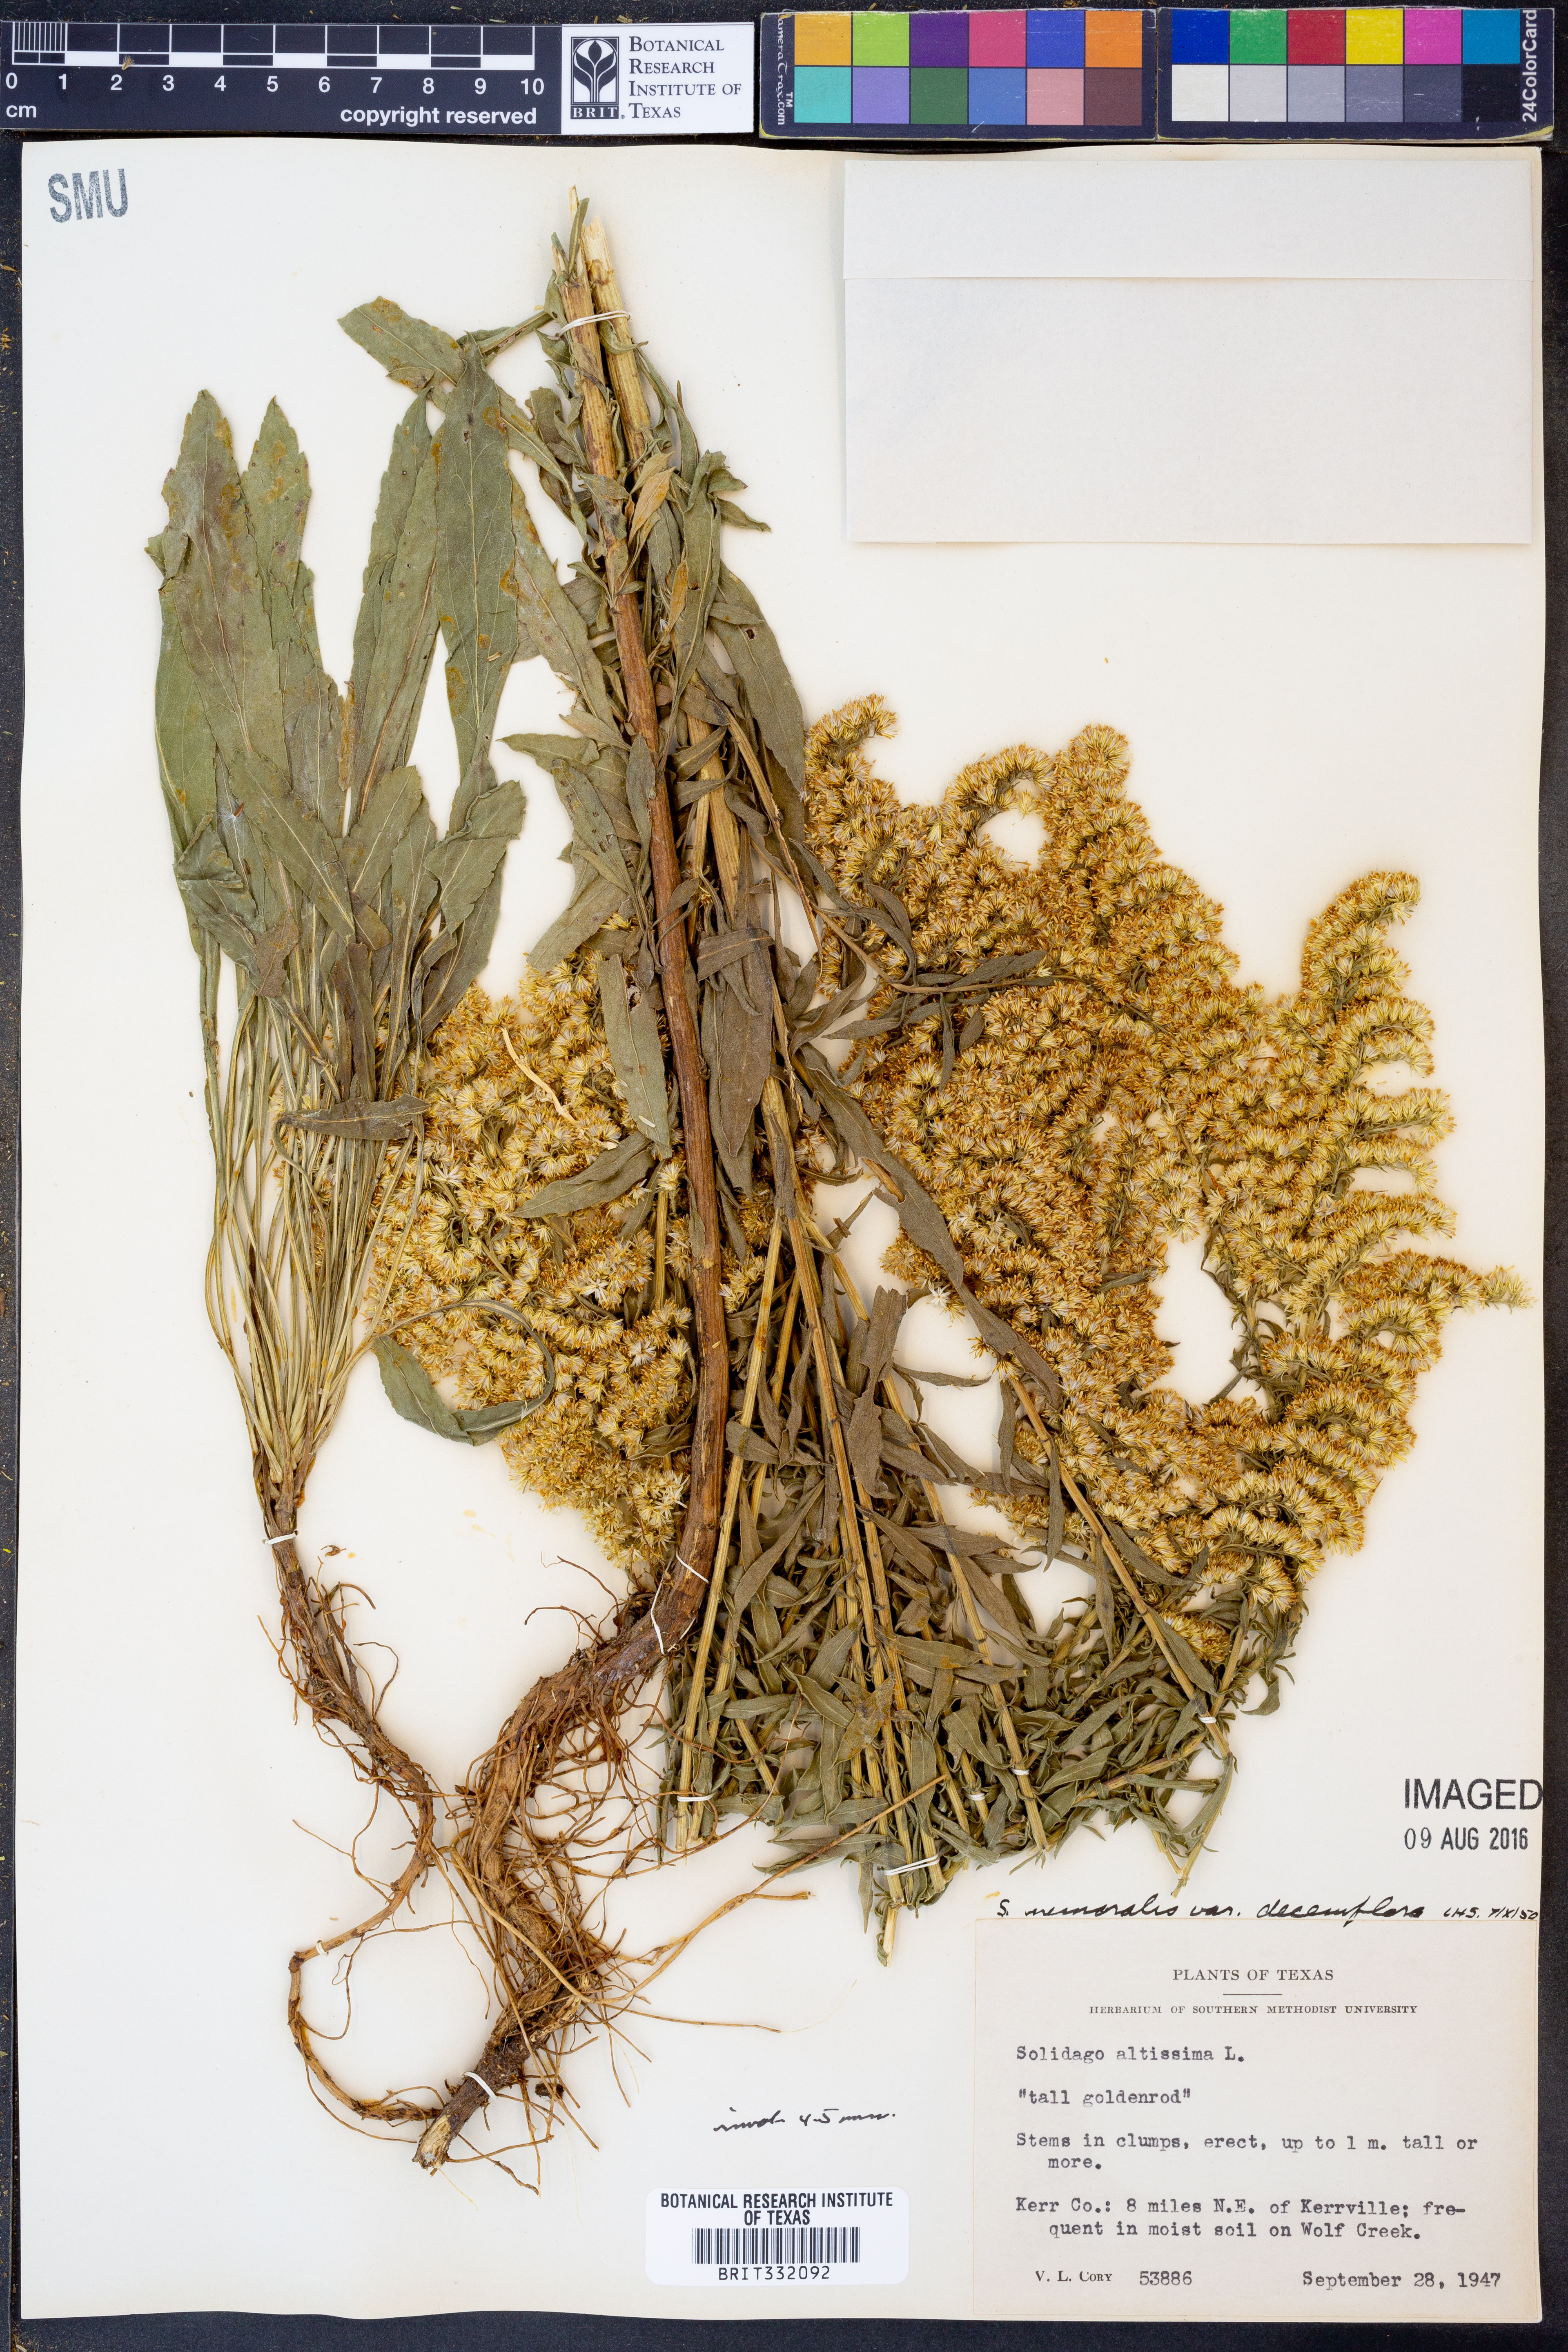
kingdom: Plantae
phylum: Tracheophyta
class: Magnoliopsida
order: Asterales
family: Asteraceae
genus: Solidago
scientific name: Solidago decemflora
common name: Prairie grey-stemmed goldenrod
